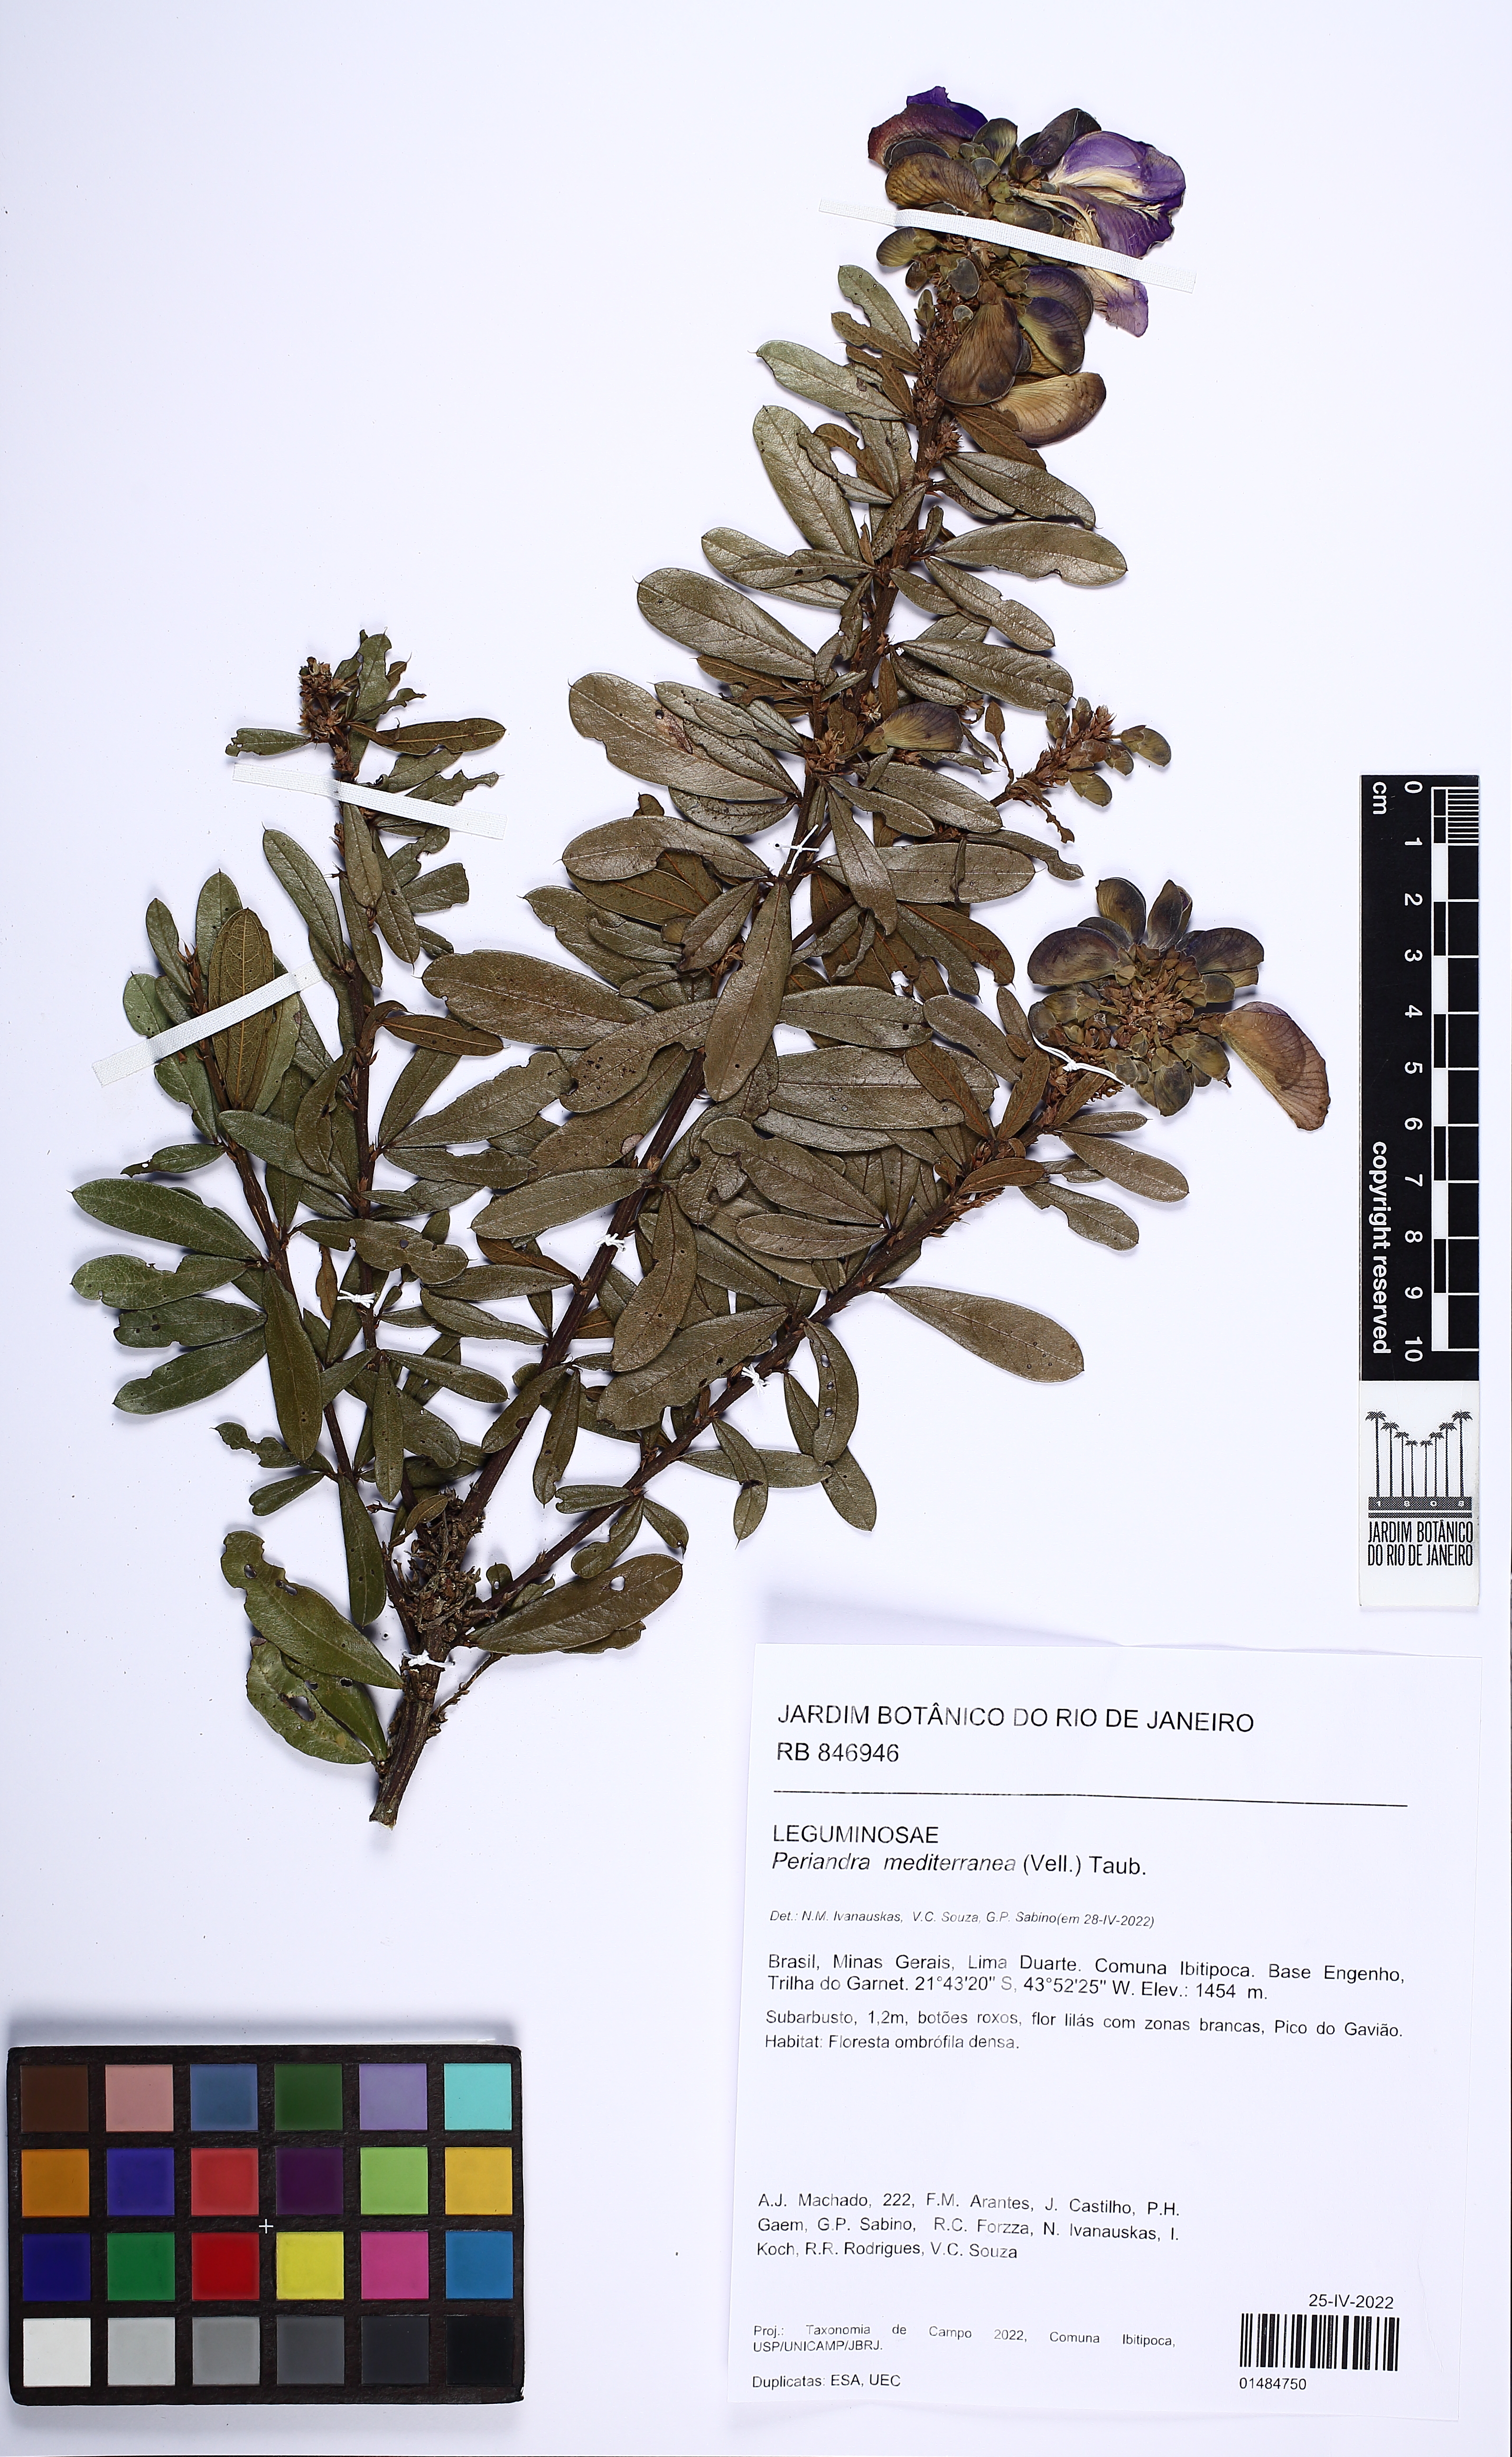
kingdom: Plantae
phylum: Tracheophyta
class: Magnoliopsida
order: Fabales
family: Fabaceae
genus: Periandra
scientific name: Periandra mediterranea
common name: Brazilian licorice
